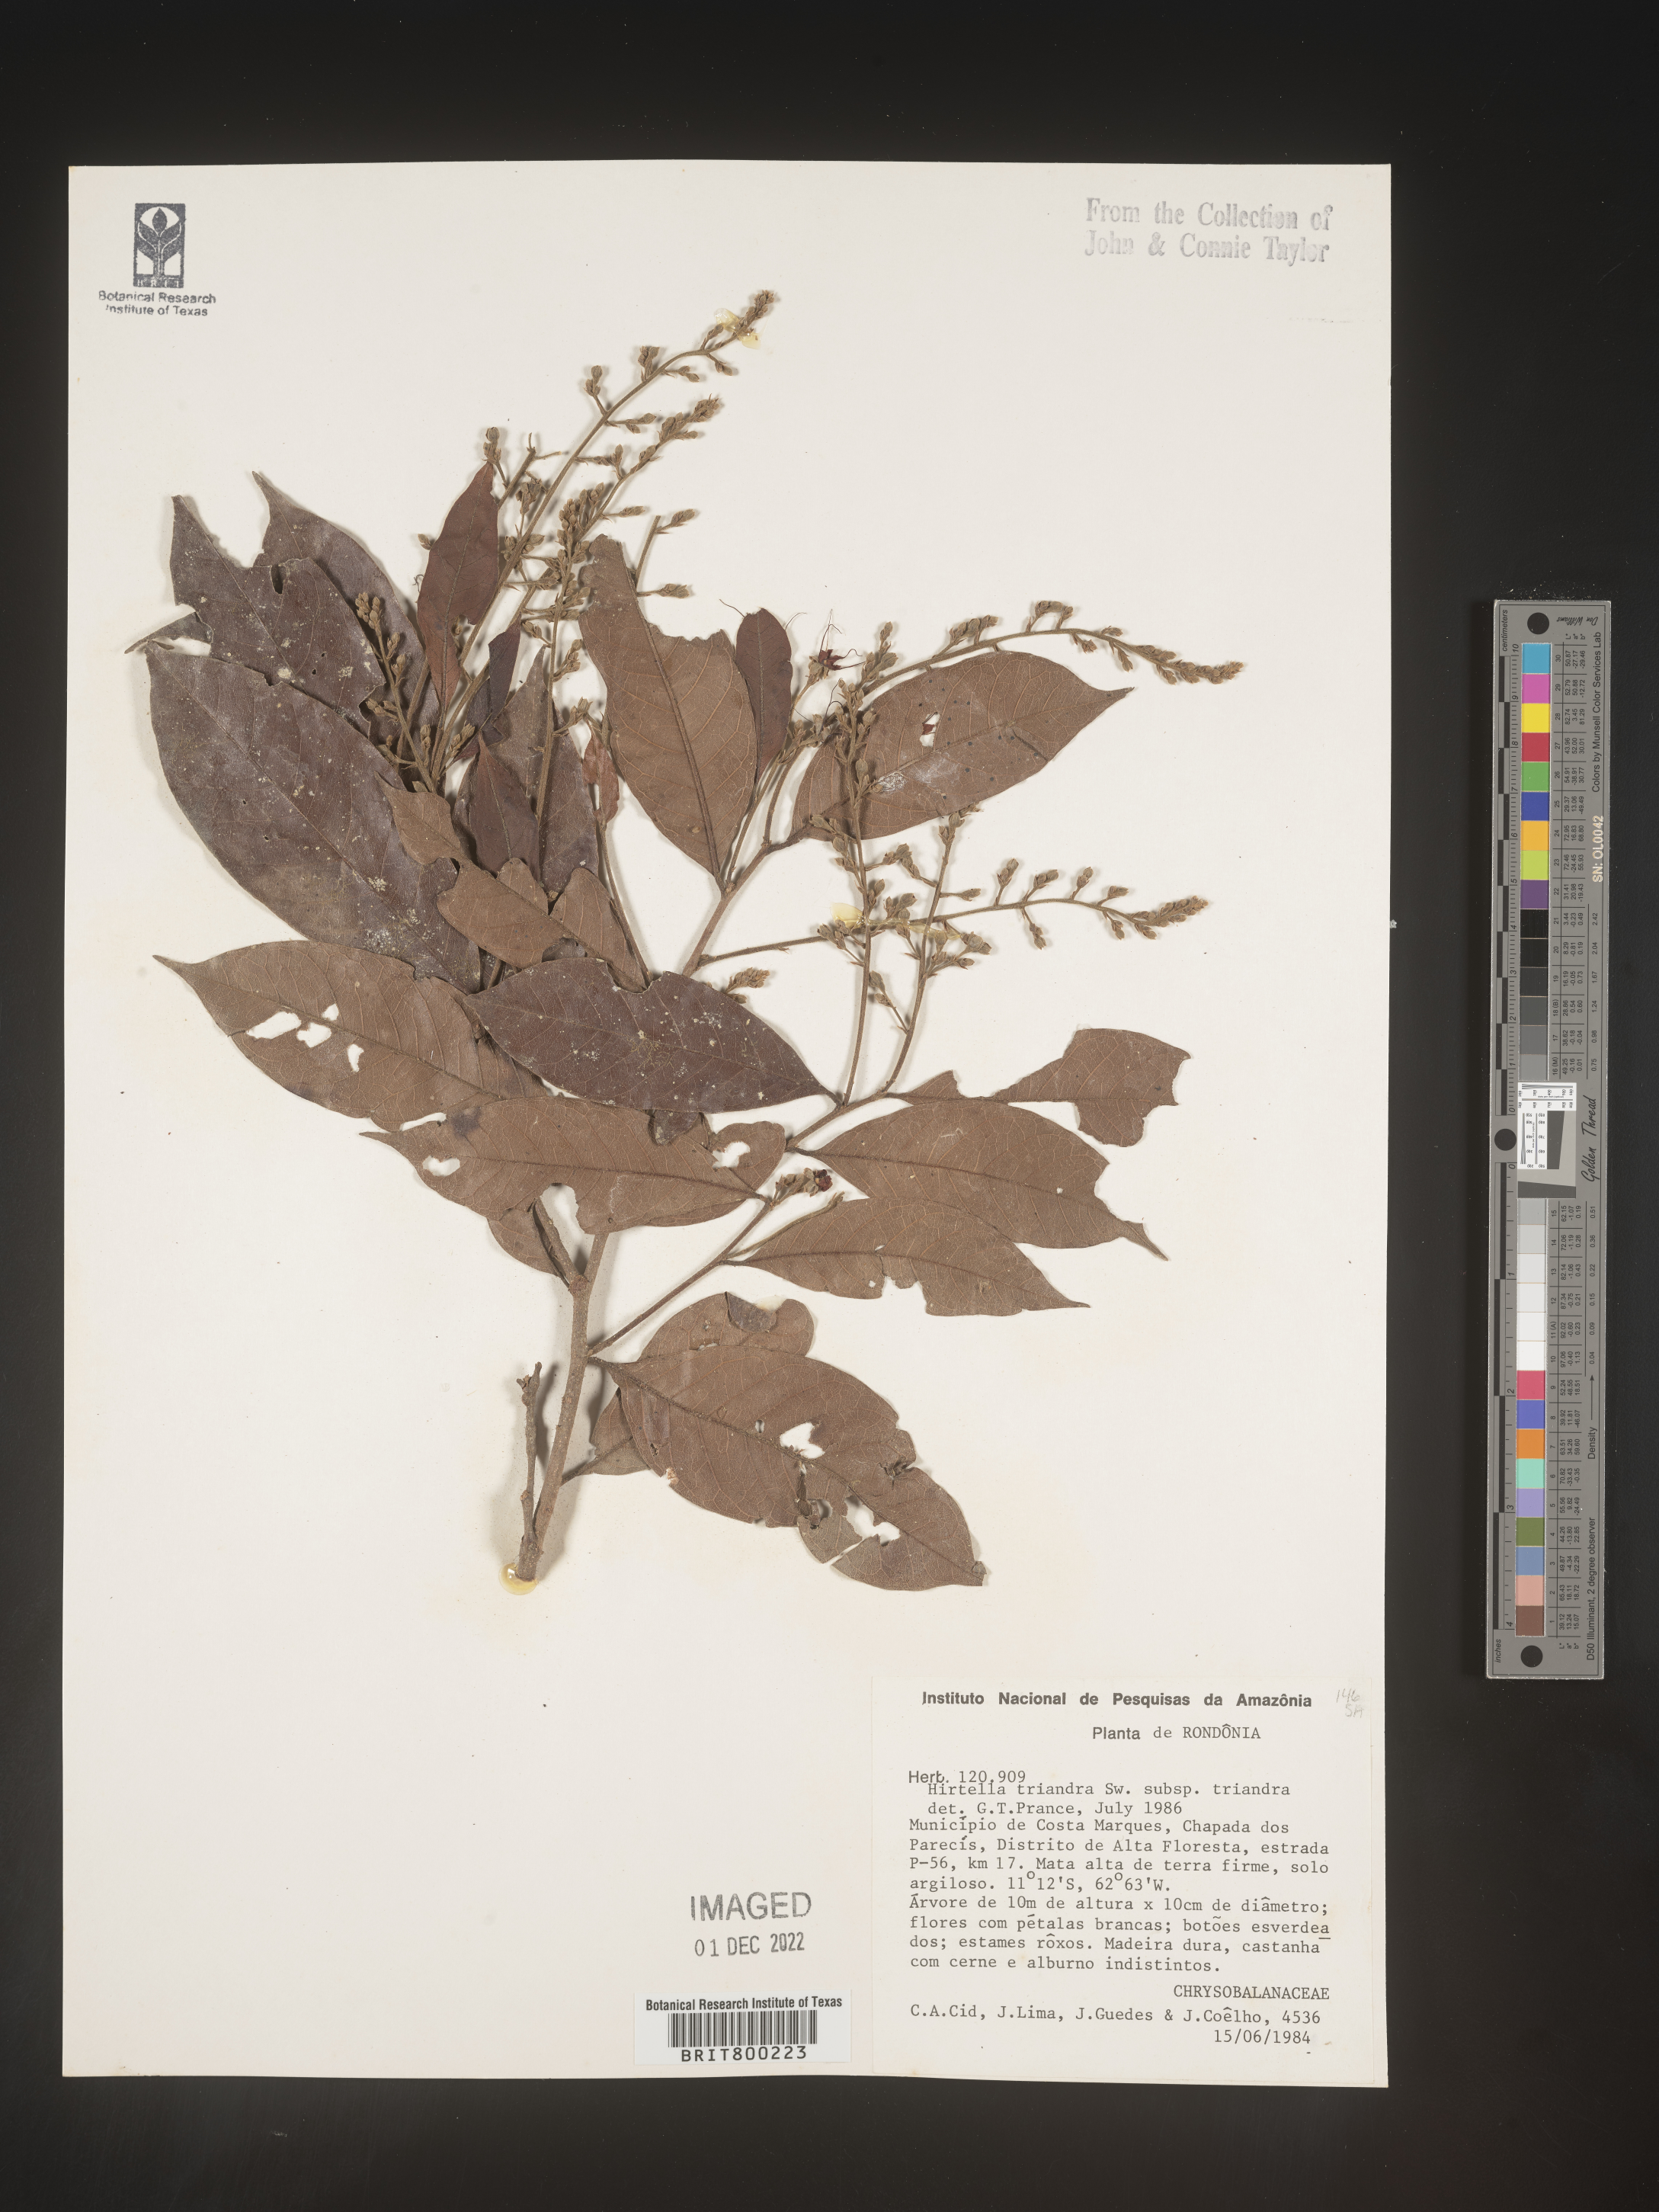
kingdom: Plantae
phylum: Tracheophyta
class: Magnoliopsida
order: Malpighiales
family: Chrysobalanaceae
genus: Hirtella
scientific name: Hirtella
